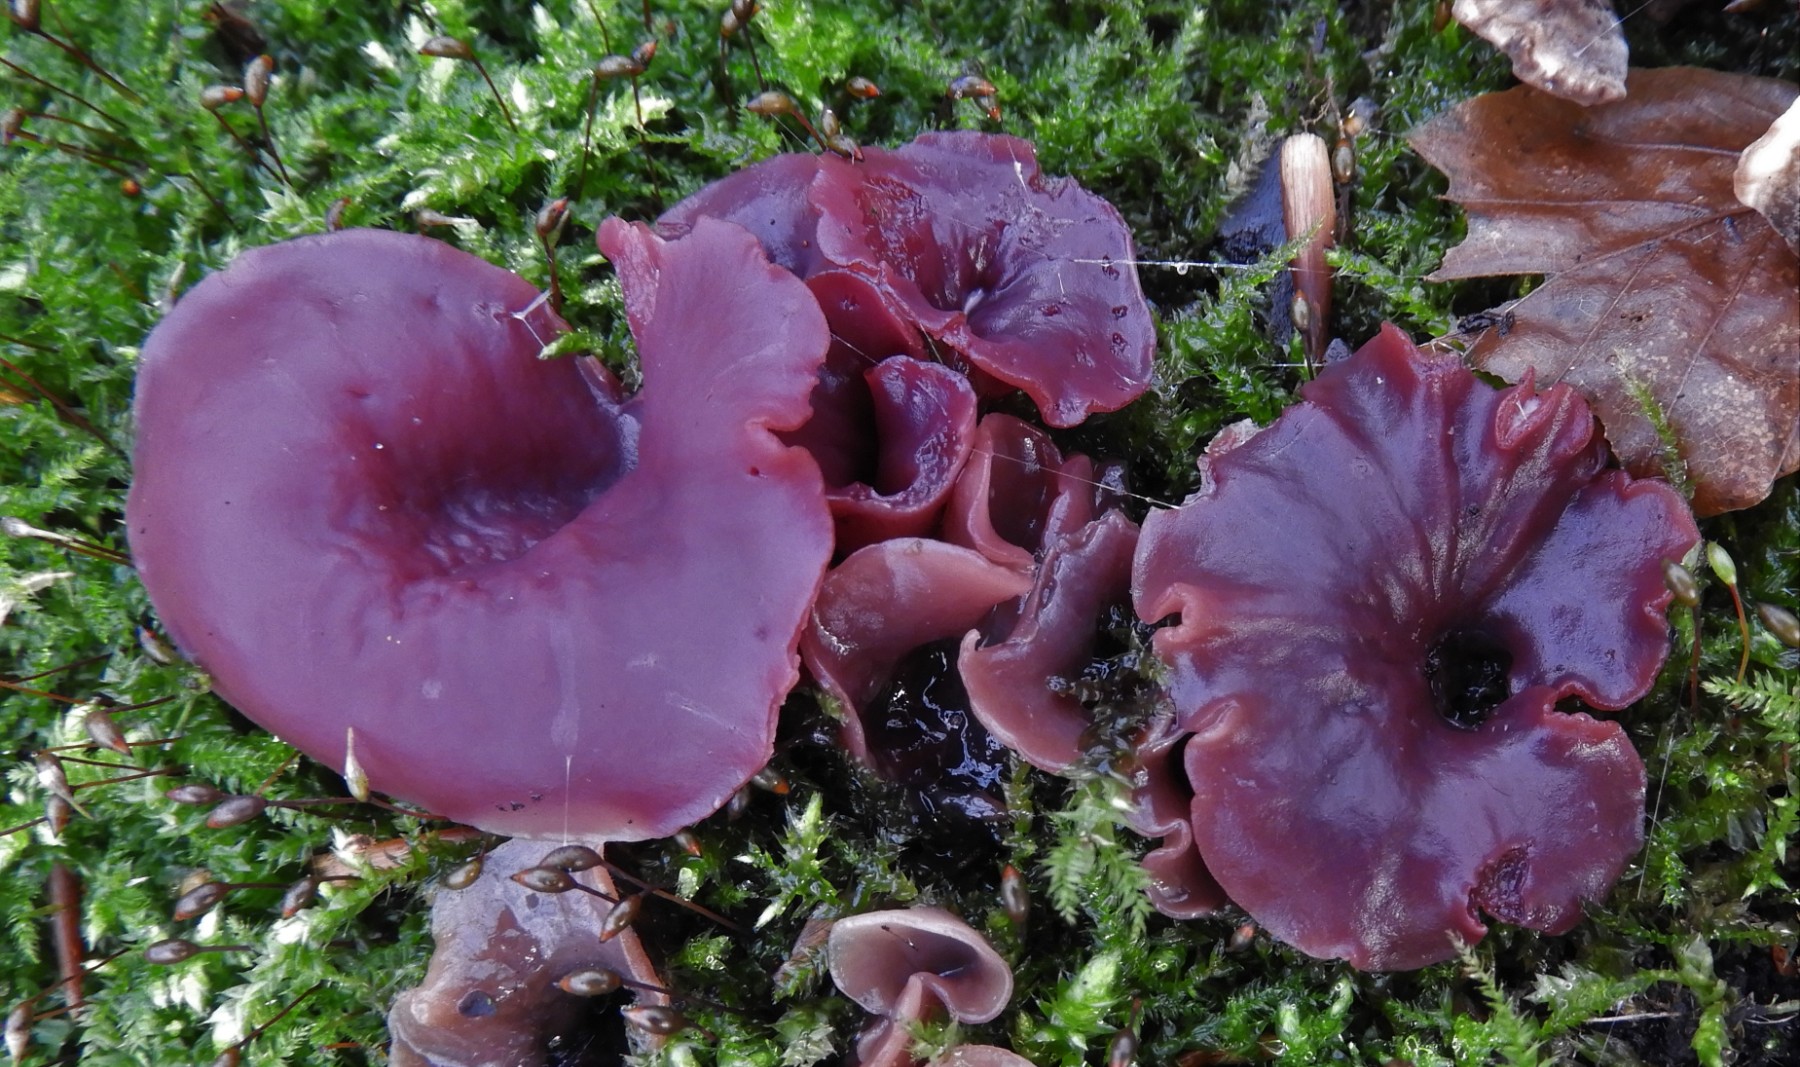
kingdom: Fungi
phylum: Ascomycota
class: Leotiomycetes
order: Helotiales
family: Gelatinodiscaceae
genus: Ascocoryne
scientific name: Ascocoryne cylichnium
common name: stor sejskive
